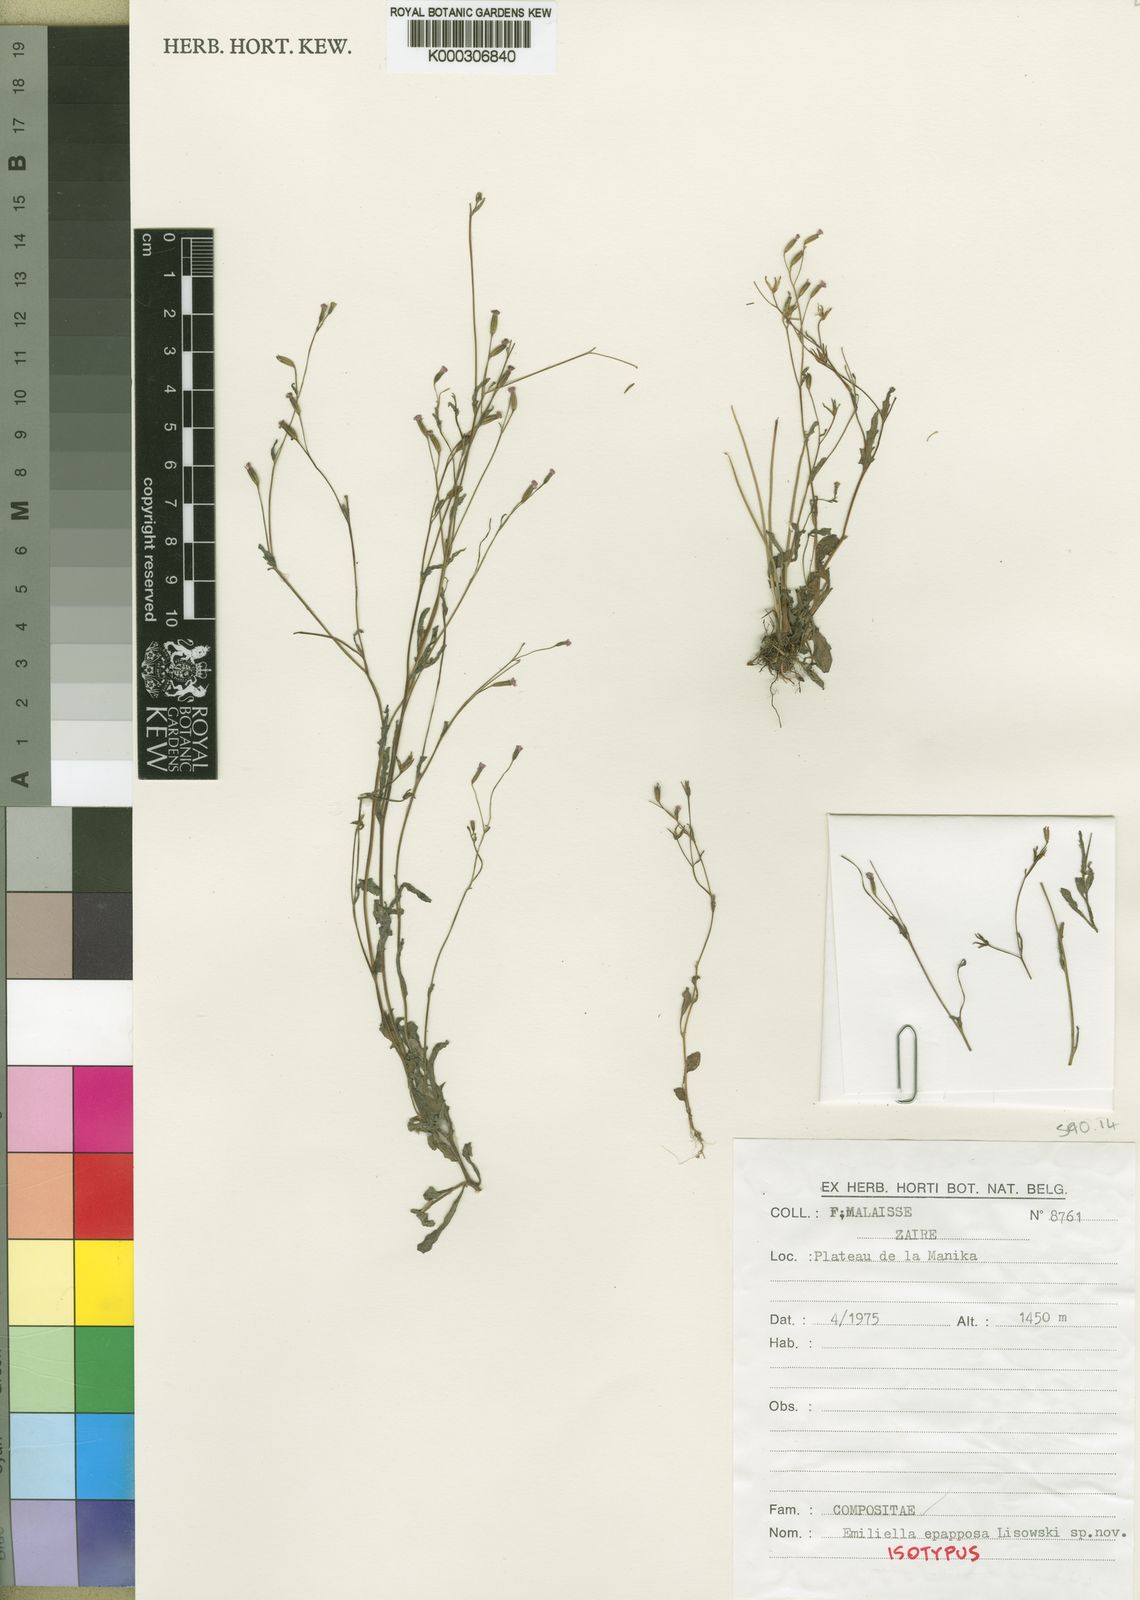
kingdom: Plantae
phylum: Tracheophyta
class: Magnoliopsida
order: Asterales
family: Asteraceae
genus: Emilia
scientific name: Emilia epapposa
